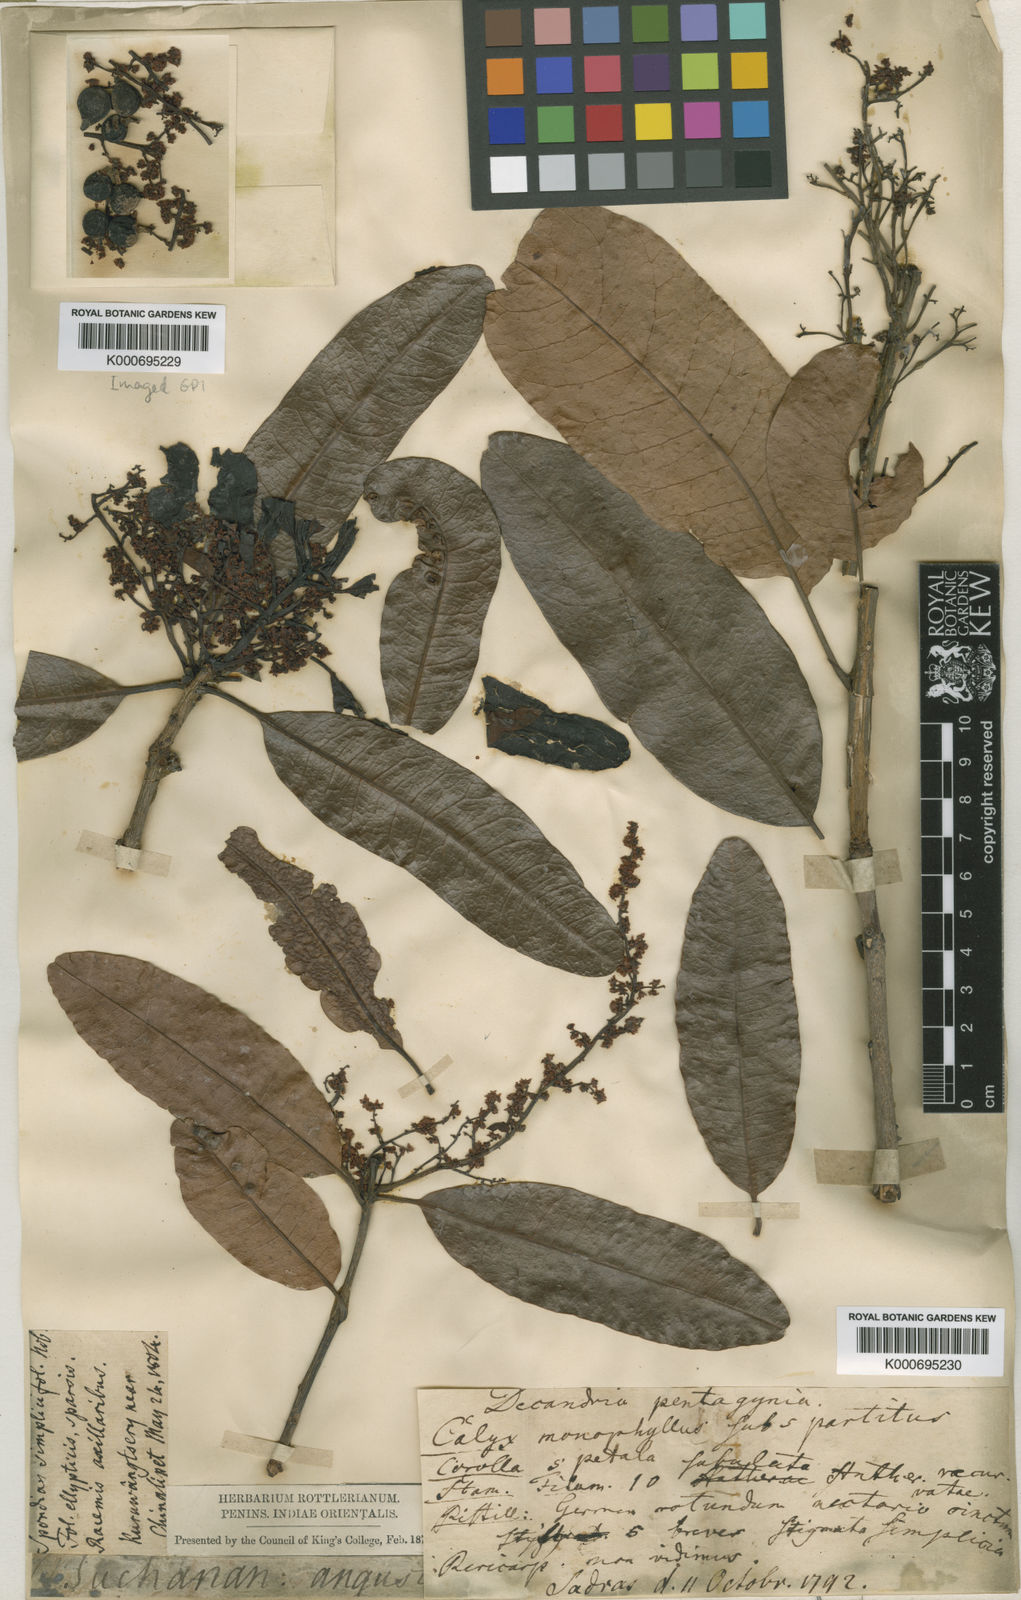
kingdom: Plantae
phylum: Tracheophyta
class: Magnoliopsida
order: Sapindales
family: Anacardiaceae
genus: Buchanania
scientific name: Buchanania axillaris
